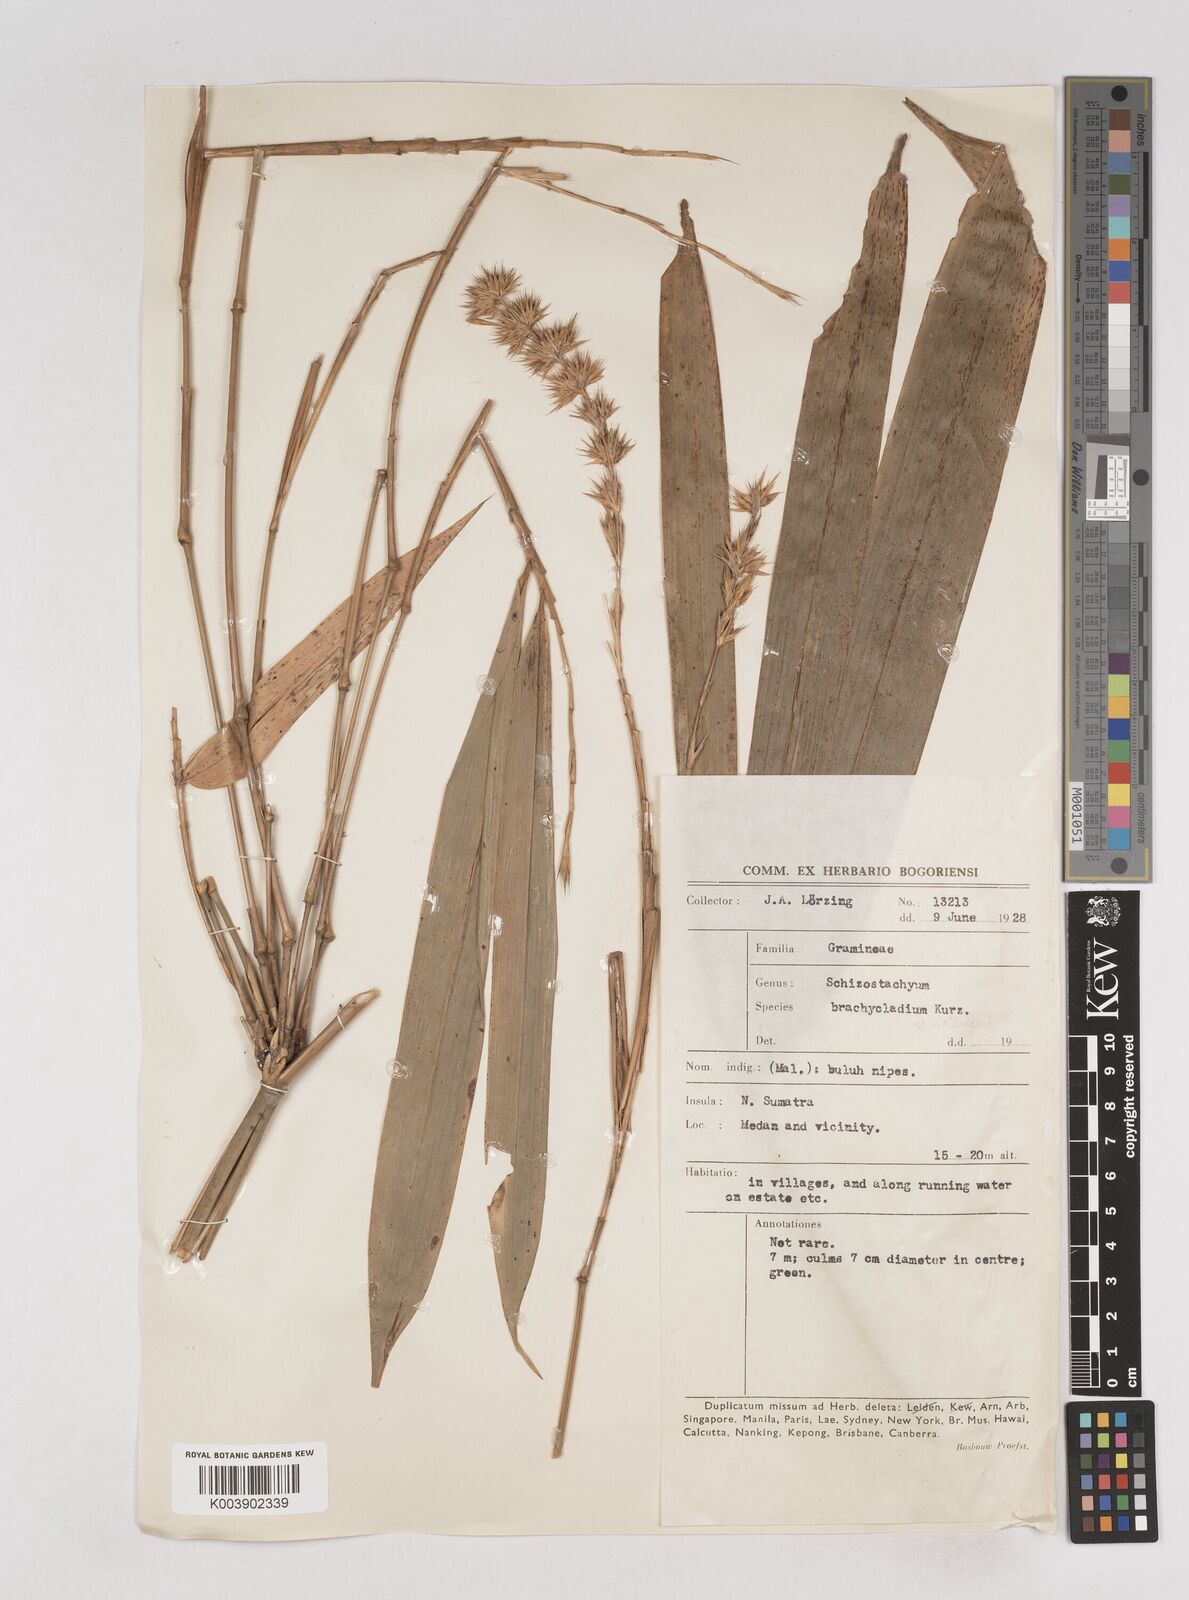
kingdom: Plantae
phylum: Tracheophyta
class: Liliopsida
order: Poales
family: Poaceae
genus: Schizostachyum
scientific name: Schizostachyum zollingeri
